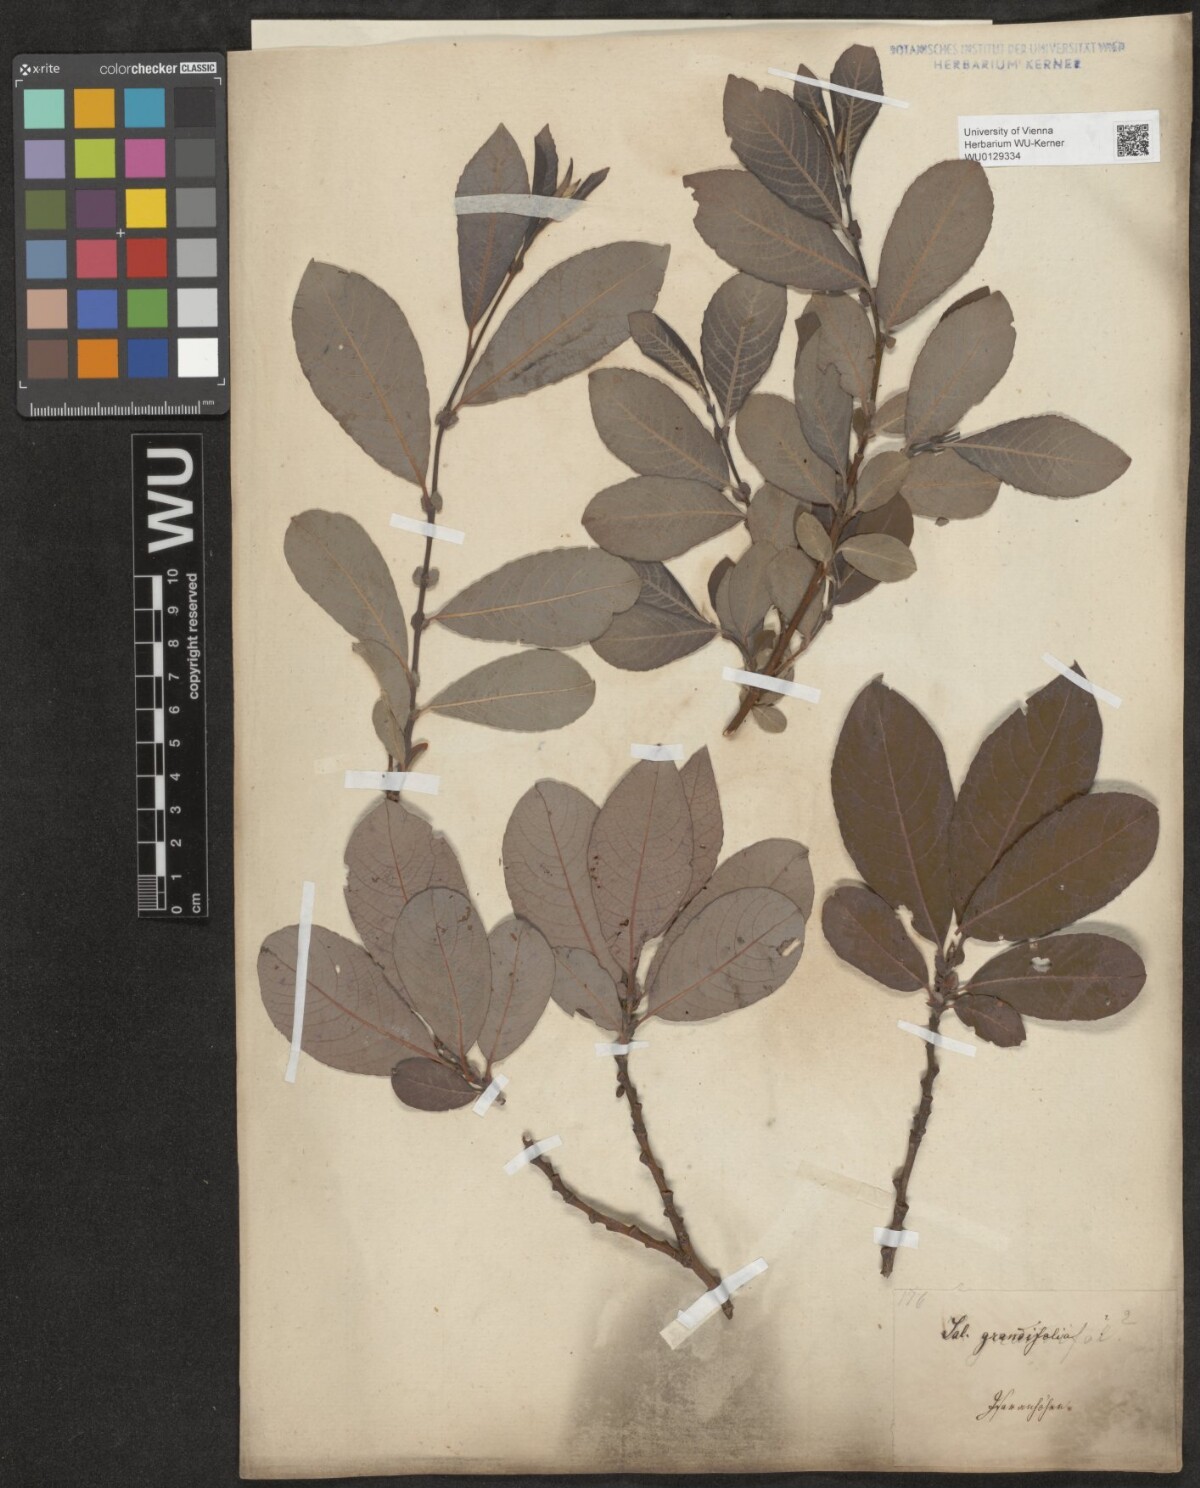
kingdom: Plantae
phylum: Tracheophyta
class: Magnoliopsida
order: Malpighiales
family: Salicaceae
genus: Salix
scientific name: Salix appendiculata
